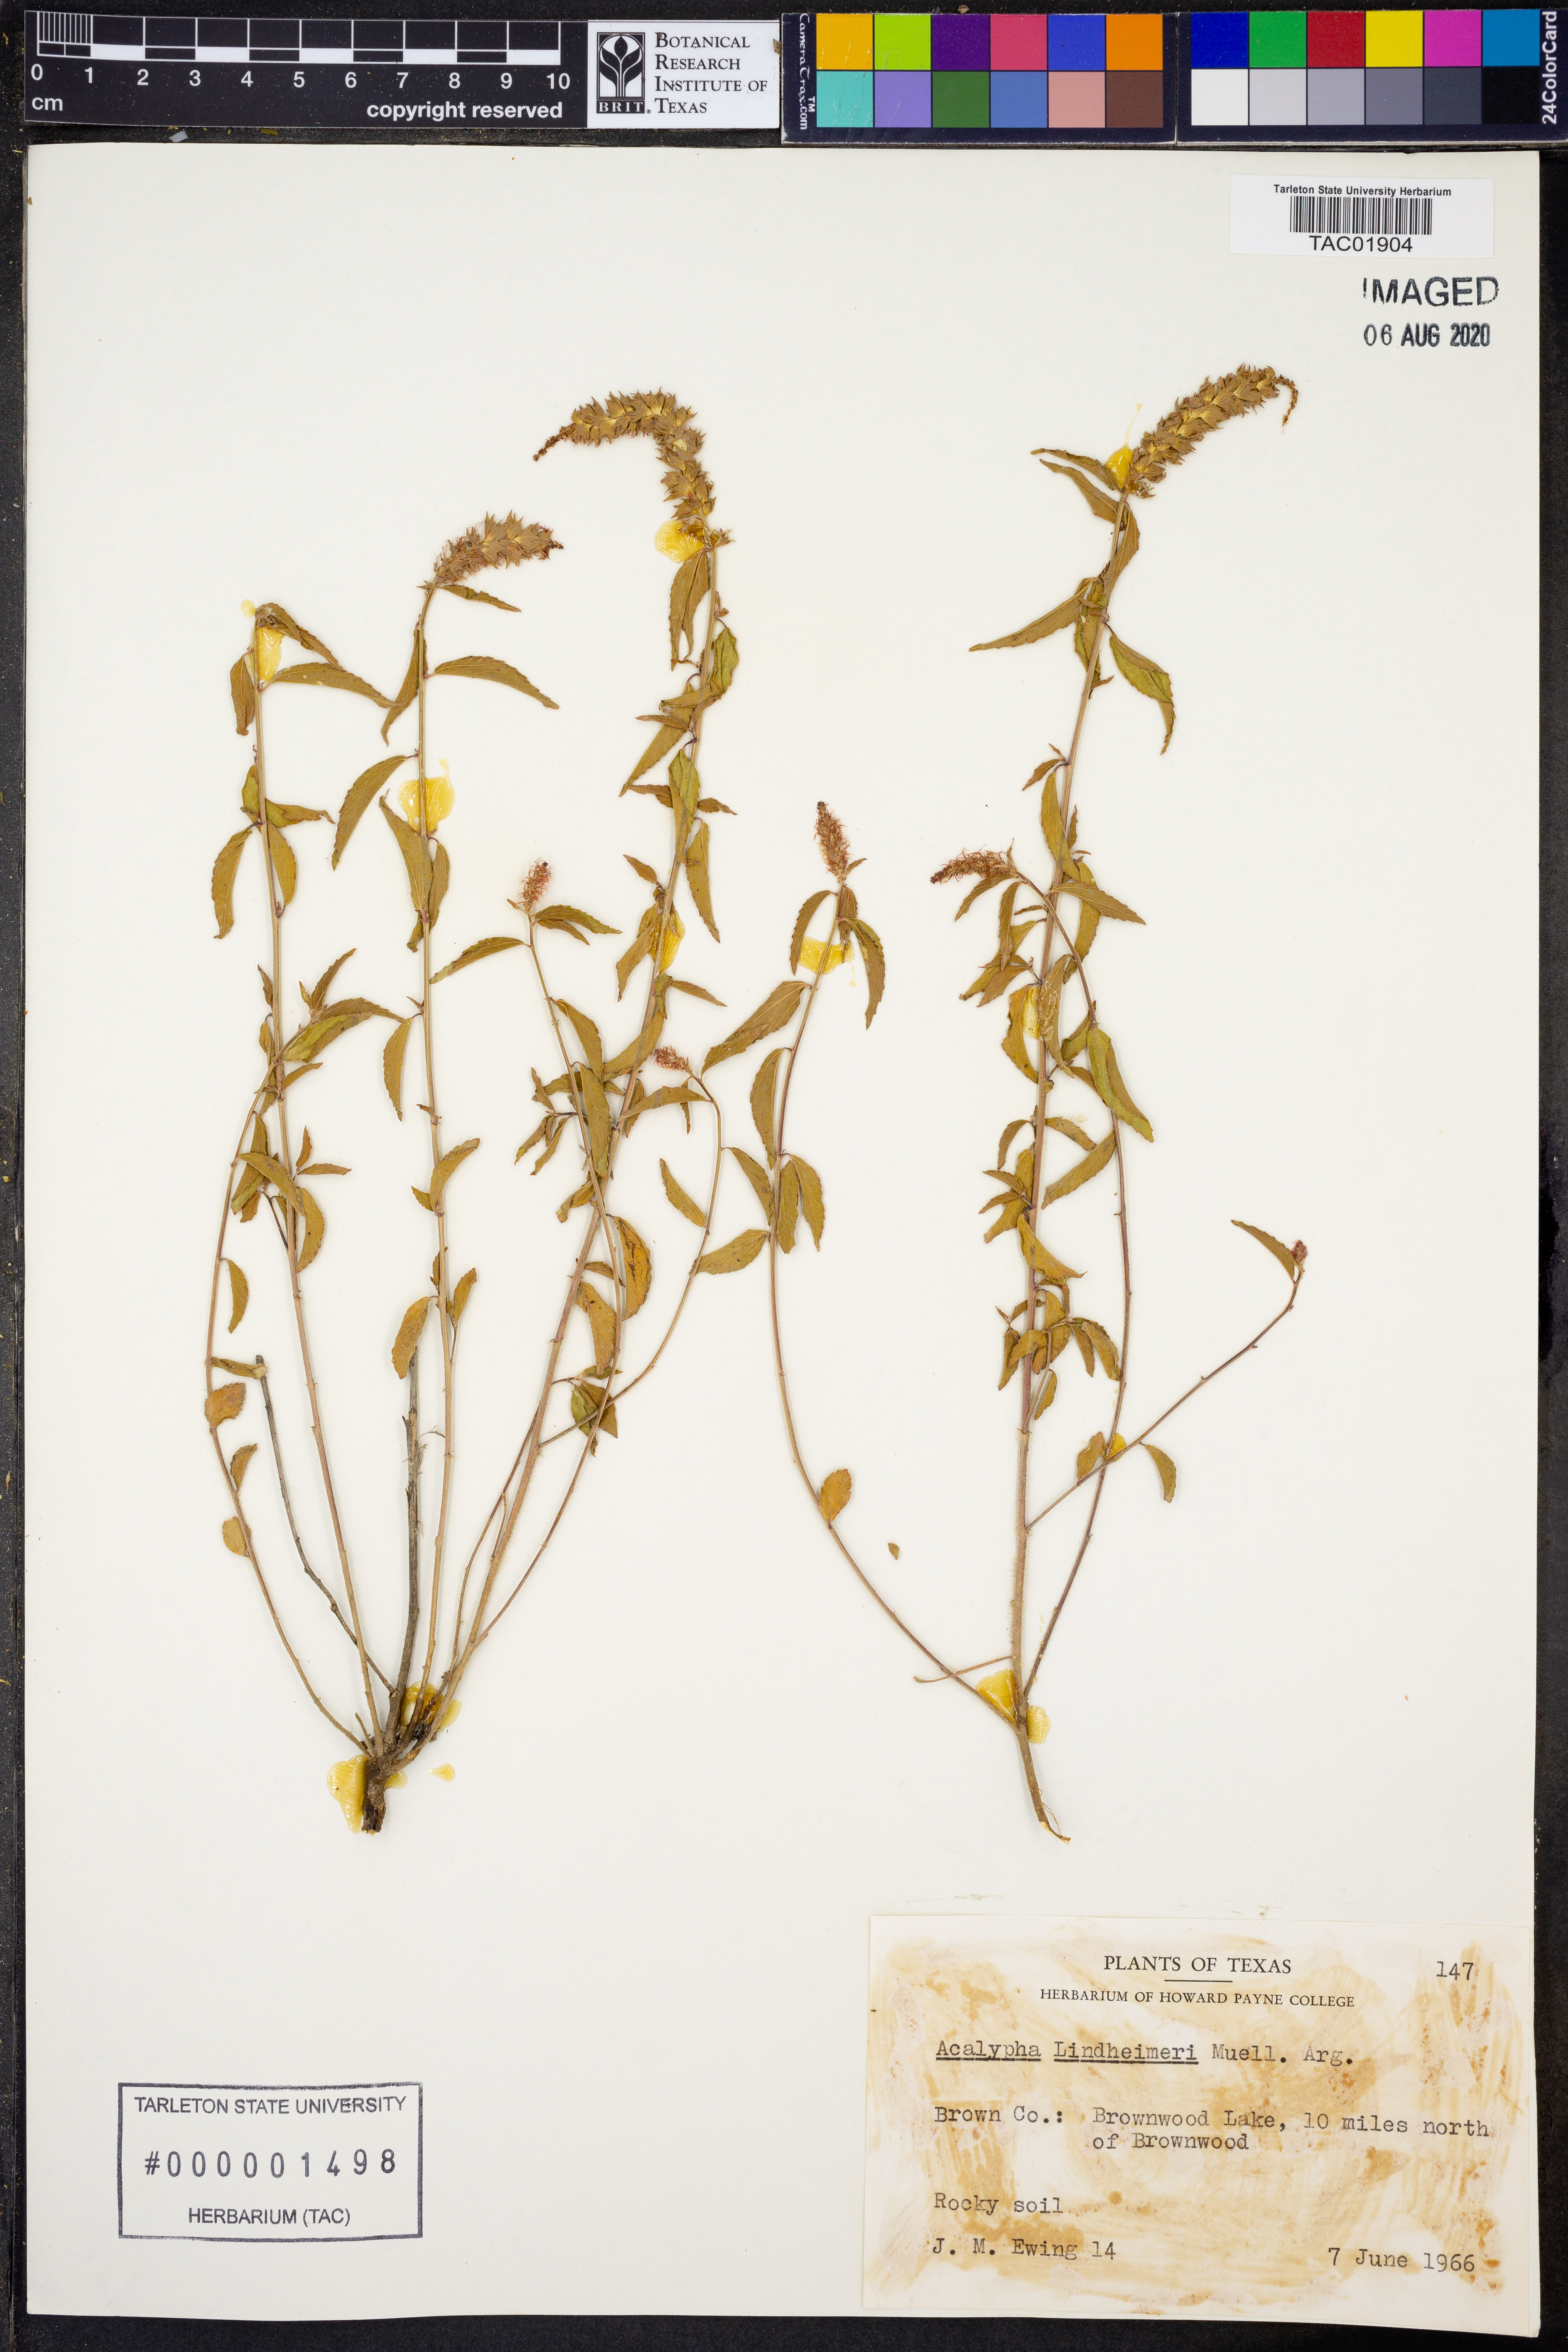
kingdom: Plantae
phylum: Tracheophyta
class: Magnoliopsida
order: Malpighiales
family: Euphorbiaceae
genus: Acalypha
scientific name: Acalypha phleoides
